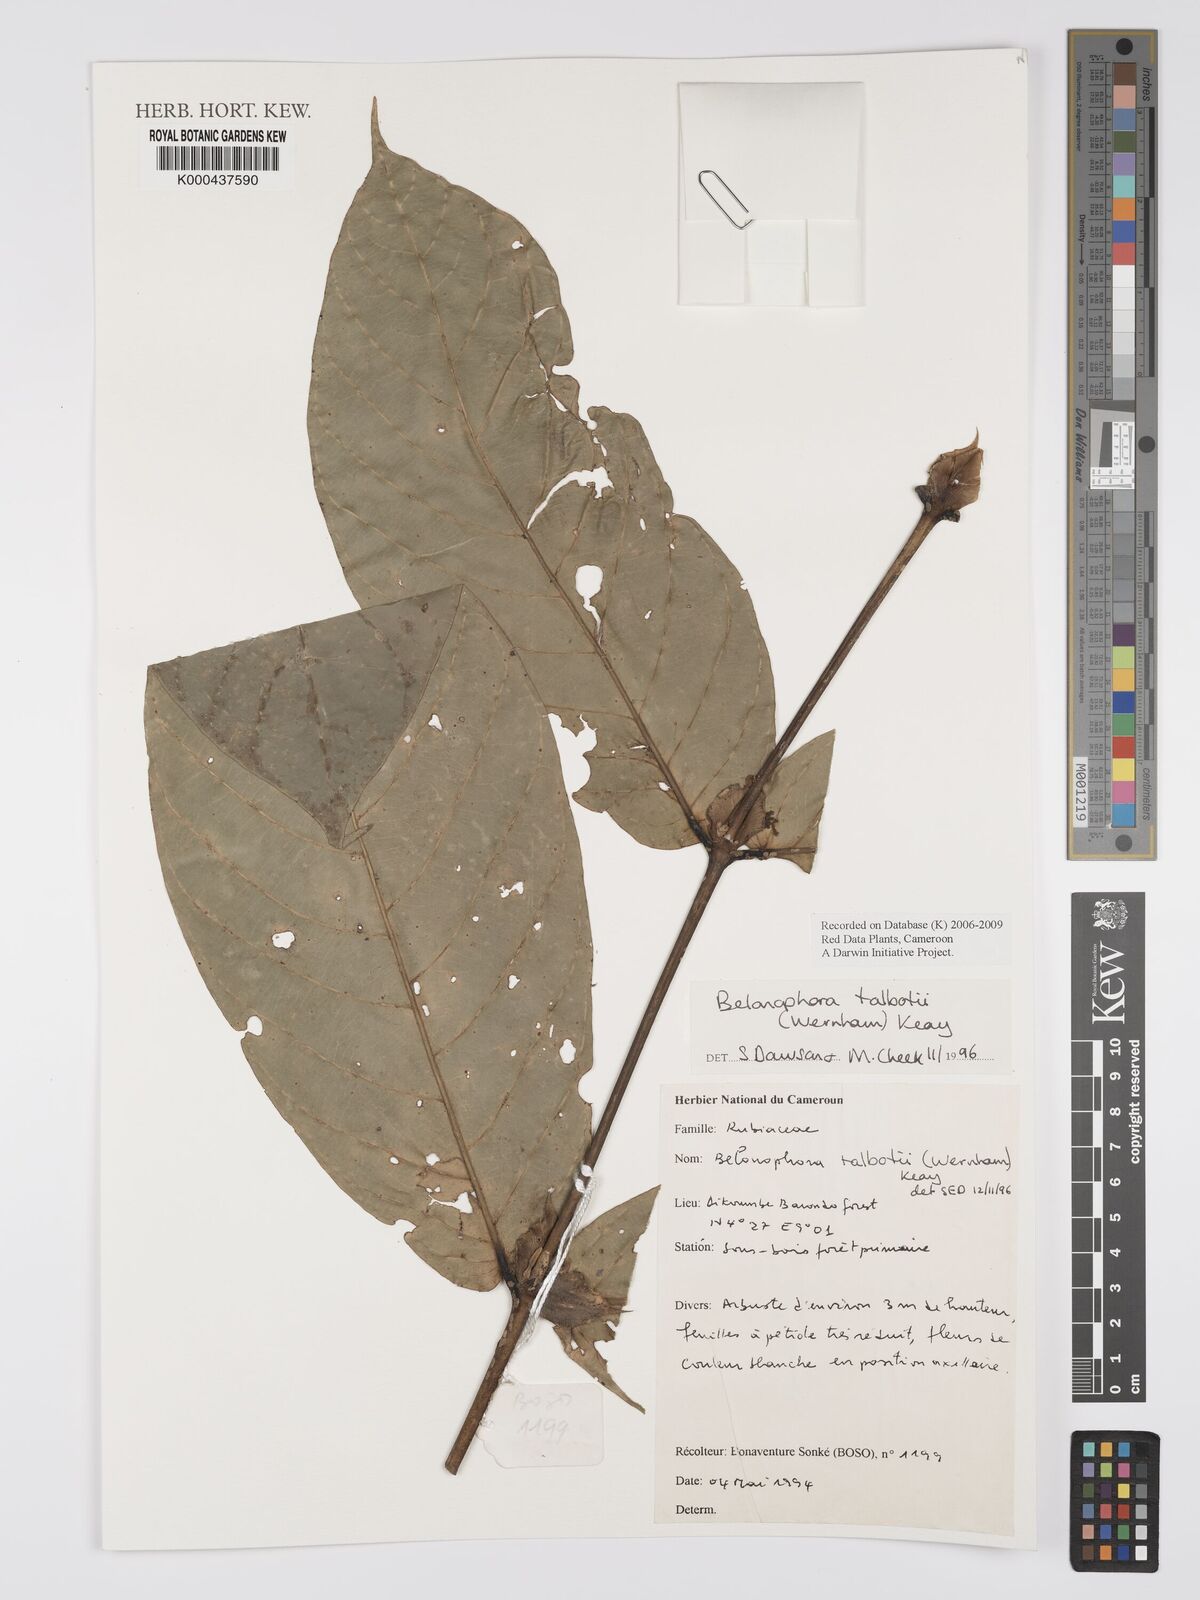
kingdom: Plantae
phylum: Tracheophyta
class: Magnoliopsida
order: Gentianales
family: Rubiaceae
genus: Belonophora
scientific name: Belonophora talbotii
